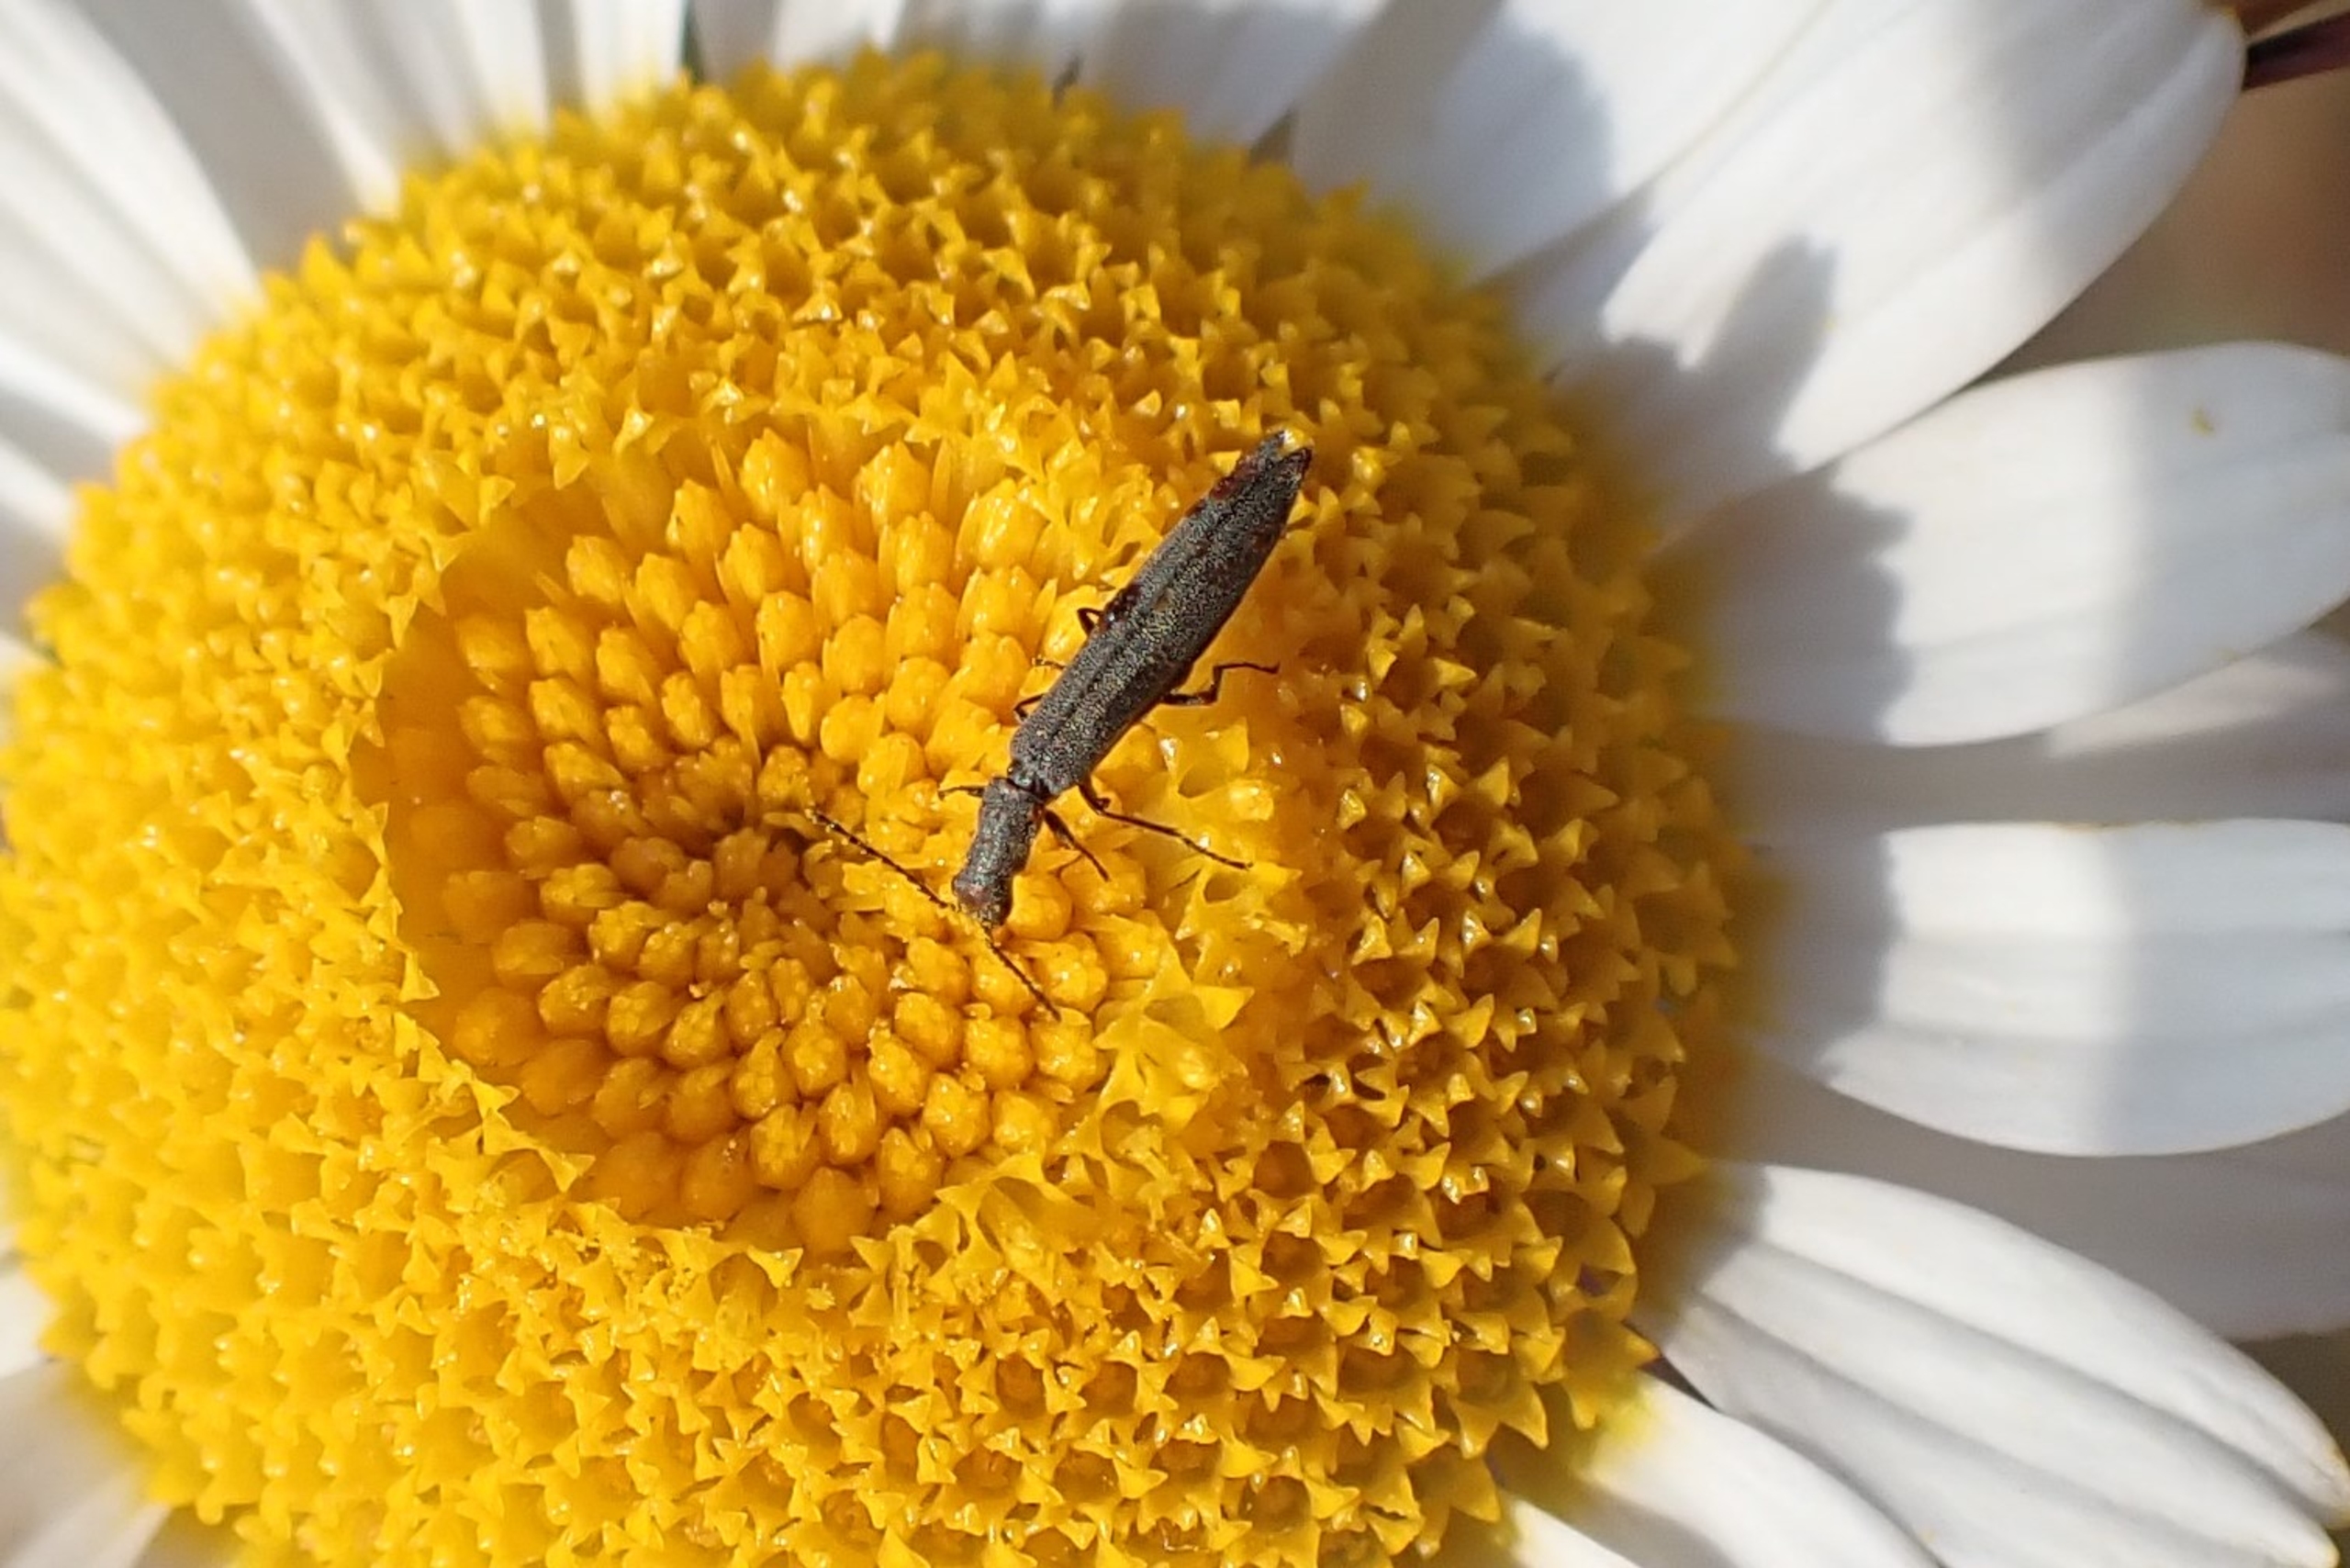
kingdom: Animalia
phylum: Arthropoda
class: Insecta
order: Coleoptera
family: Melyridae
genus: Dolichosoma
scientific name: Dolichosoma lineare
